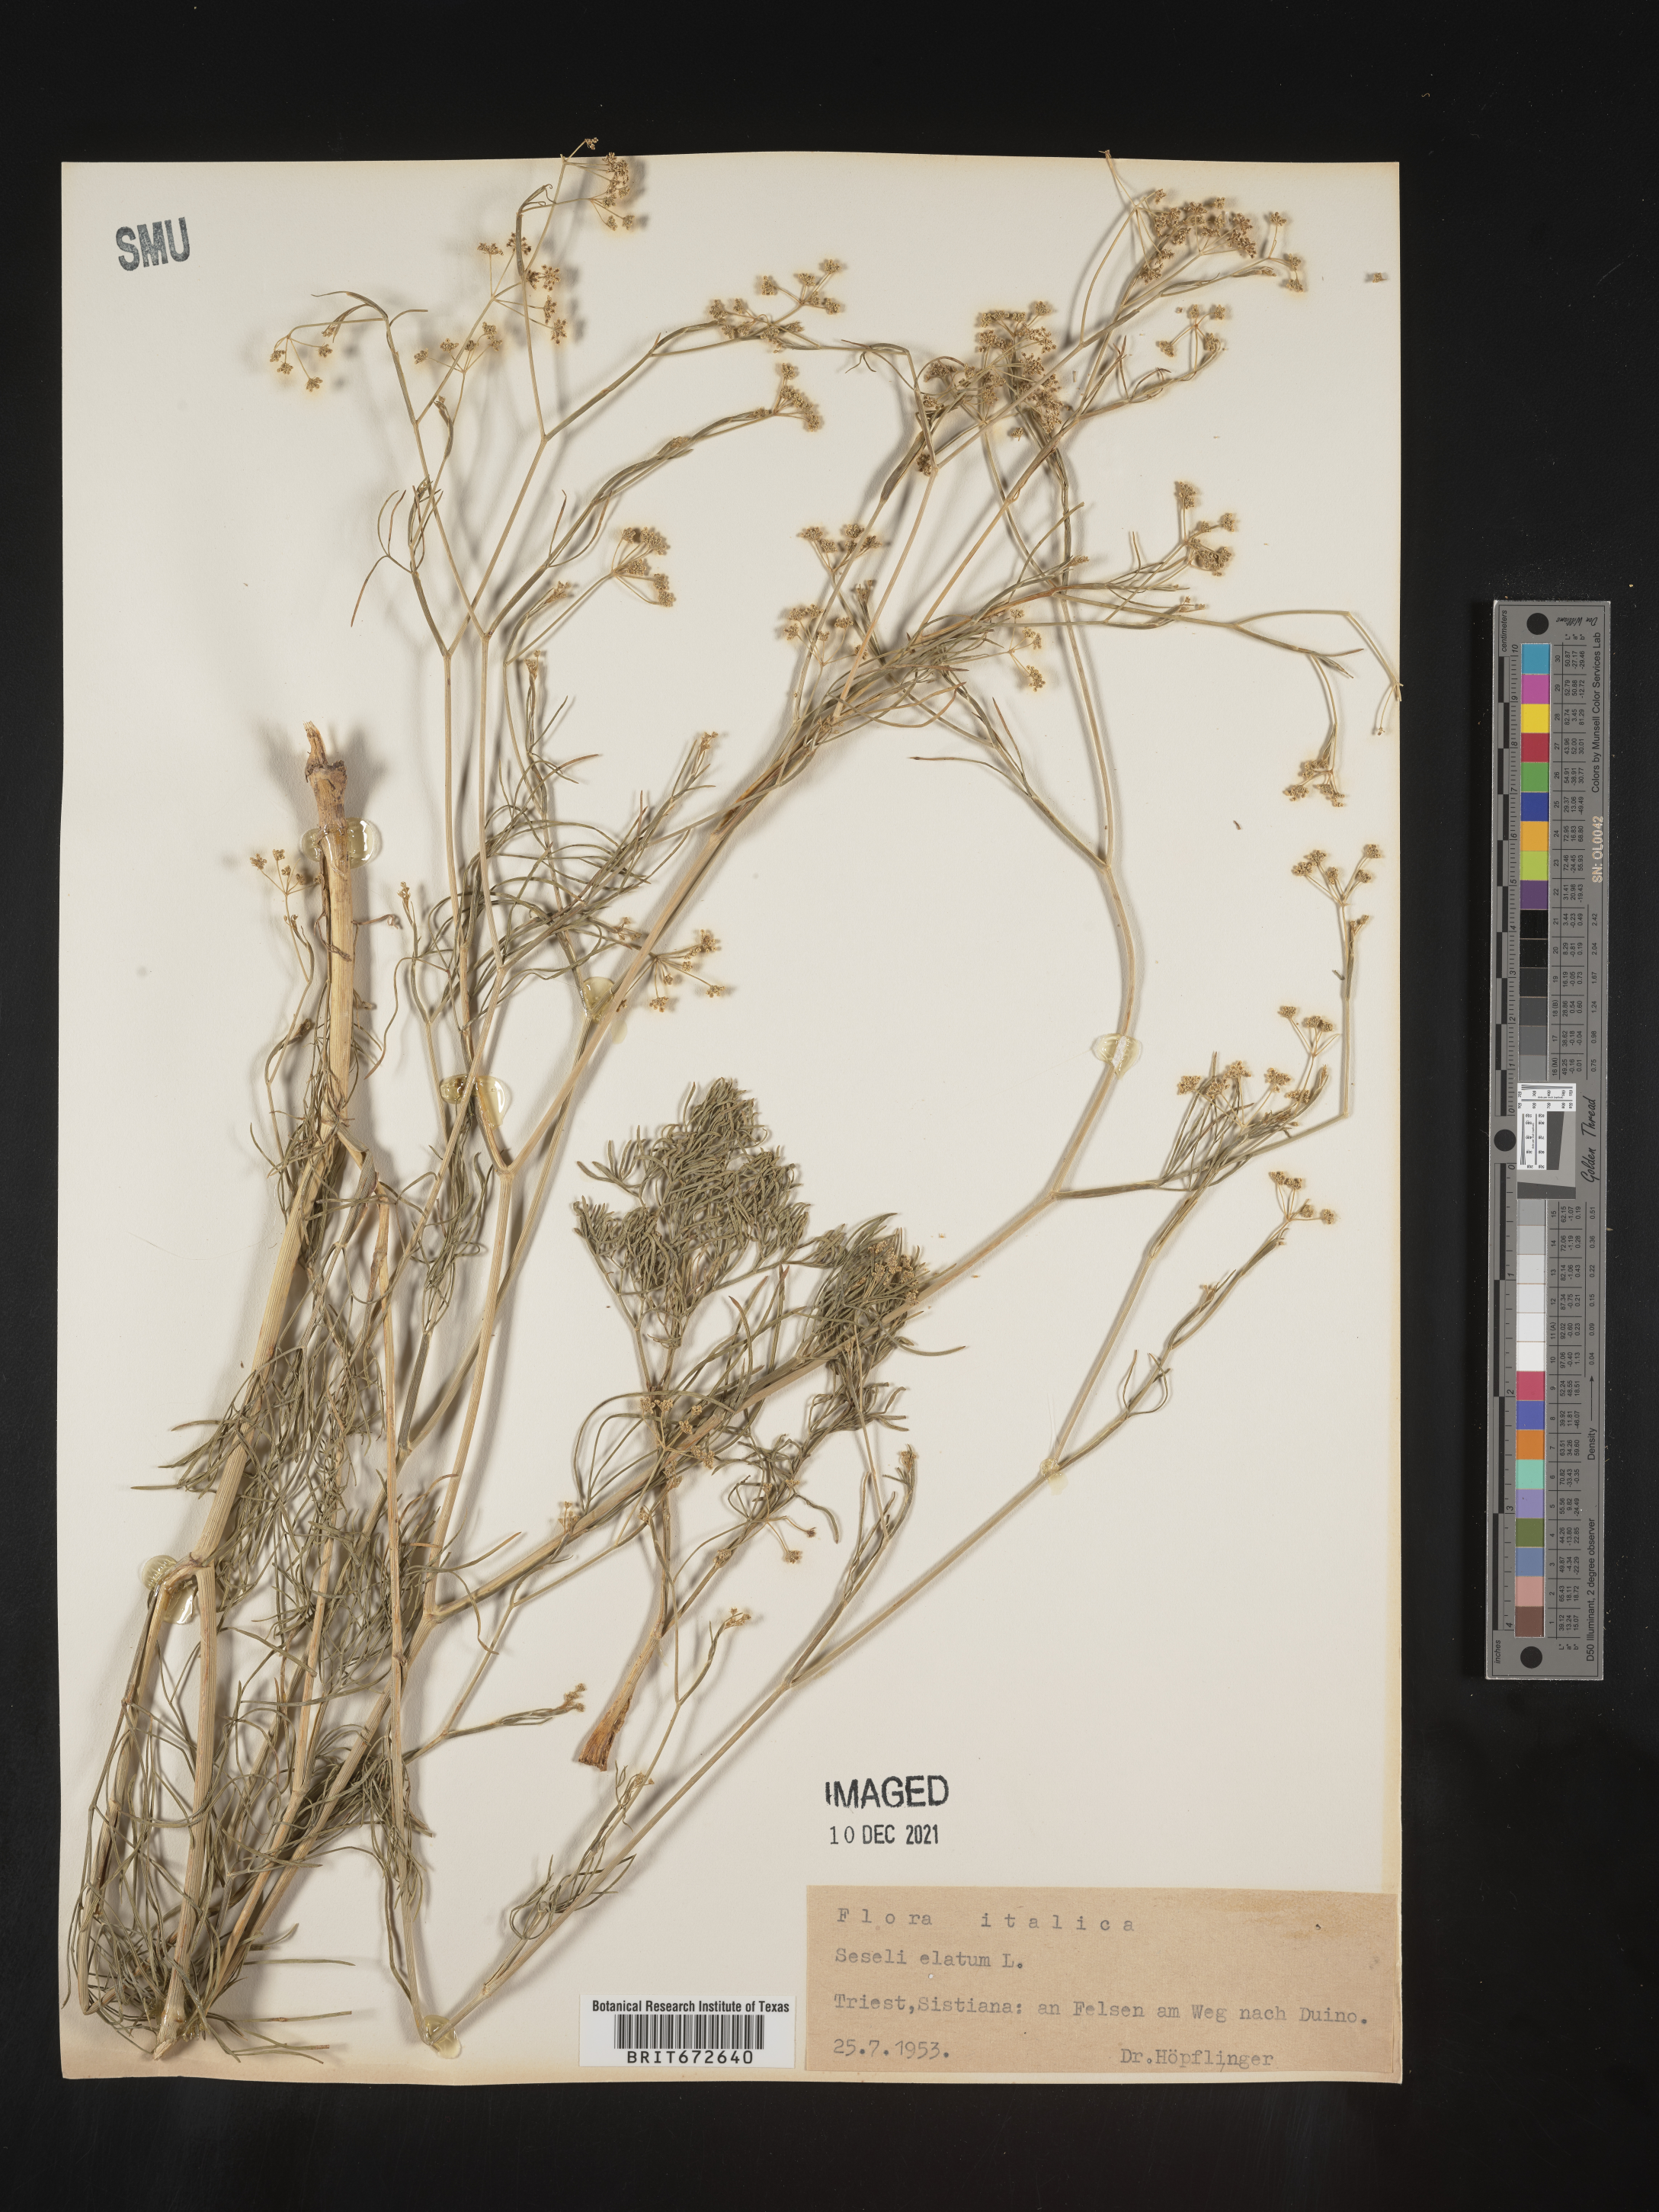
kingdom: Plantae
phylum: Tracheophyta
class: Magnoliopsida
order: Apiales
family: Apiaceae
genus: Seseli
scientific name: Seseli
